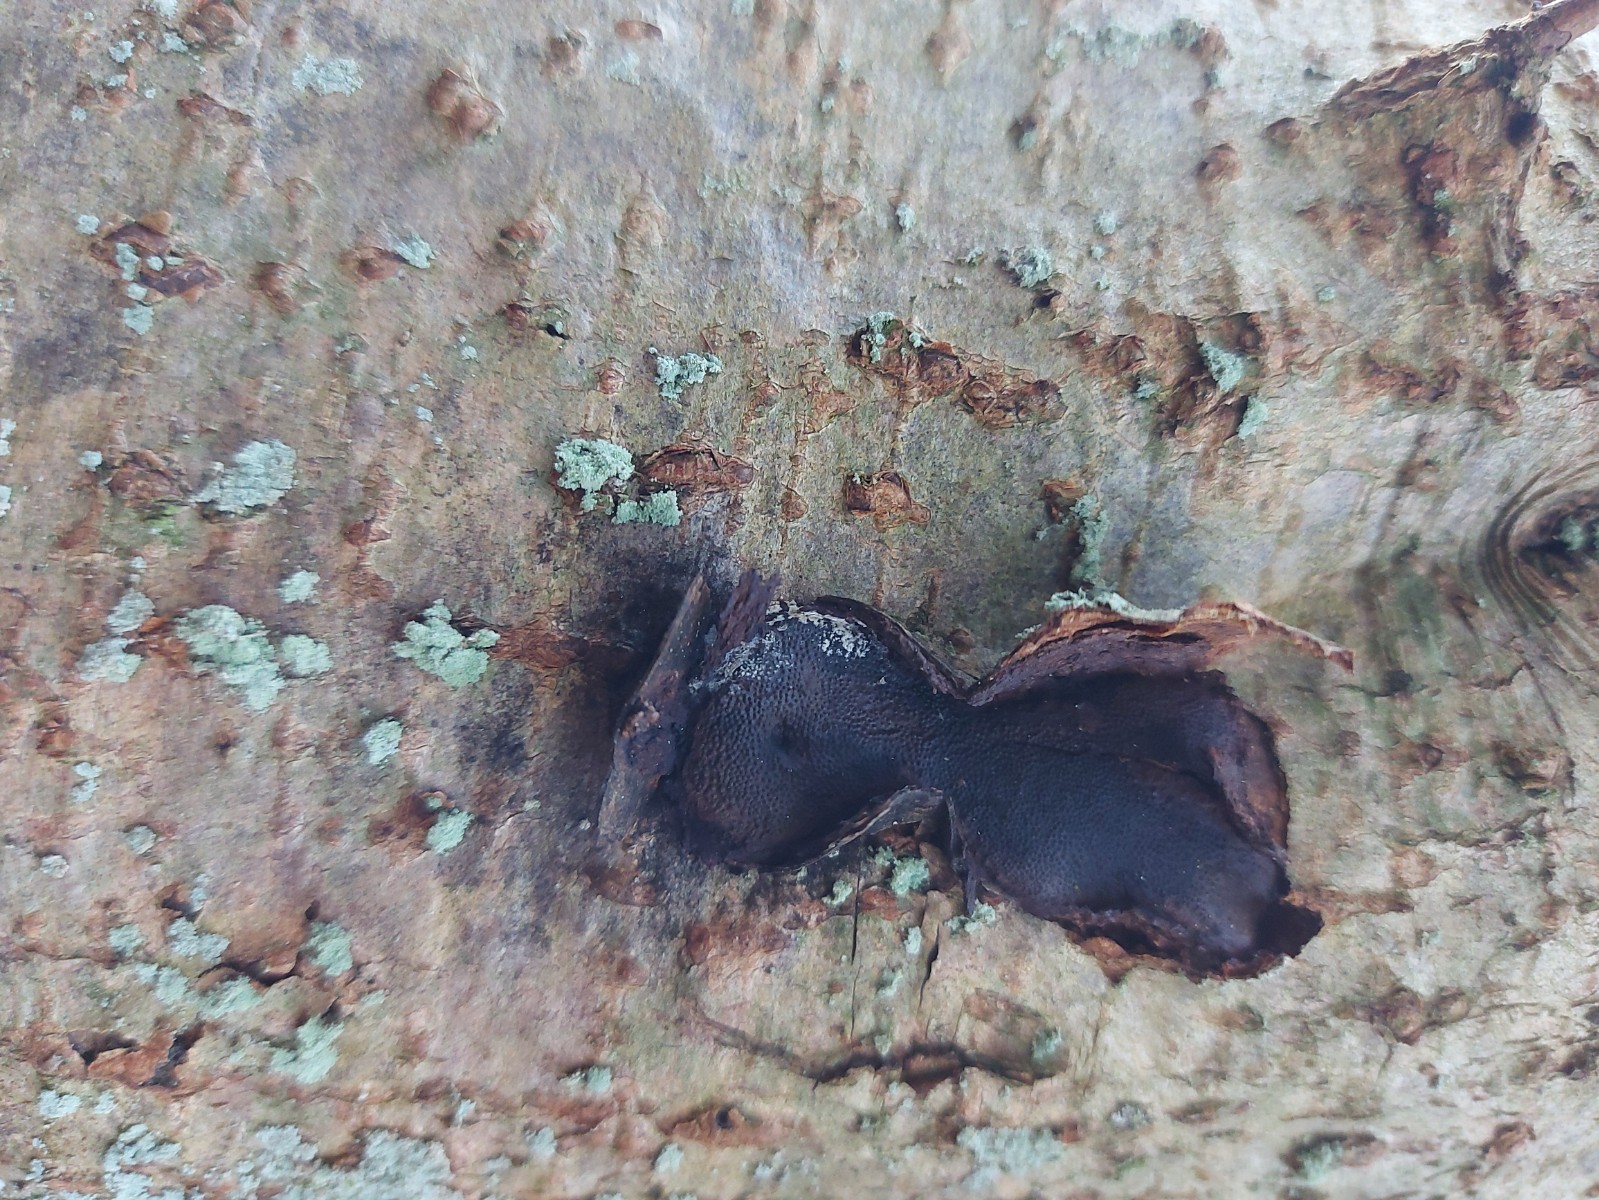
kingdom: Fungi
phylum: Ascomycota
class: Sordariomycetes
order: Boliniales
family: Boliniaceae
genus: Camarops
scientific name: Camarops polysperma
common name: elle-kulsnegl
